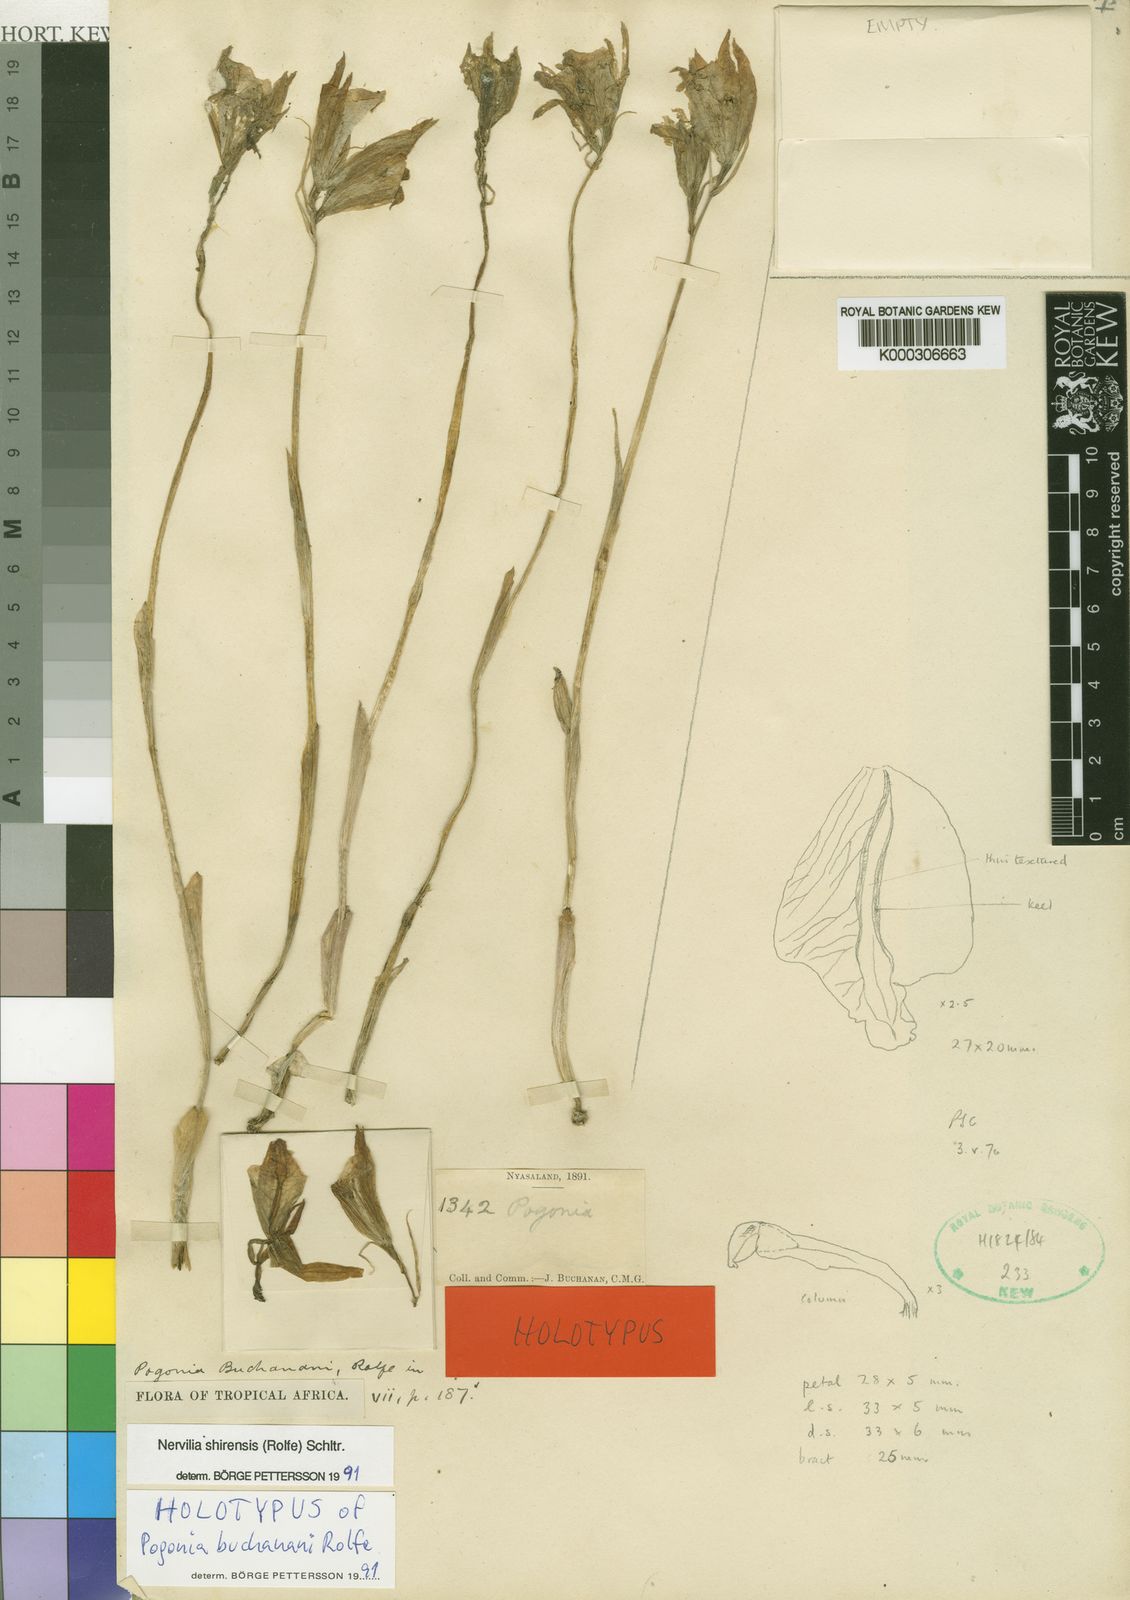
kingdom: Plantae
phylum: Tracheophyta
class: Liliopsida
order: Asparagales
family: Orchidaceae
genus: Nervilia
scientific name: Nervilia shirensis
